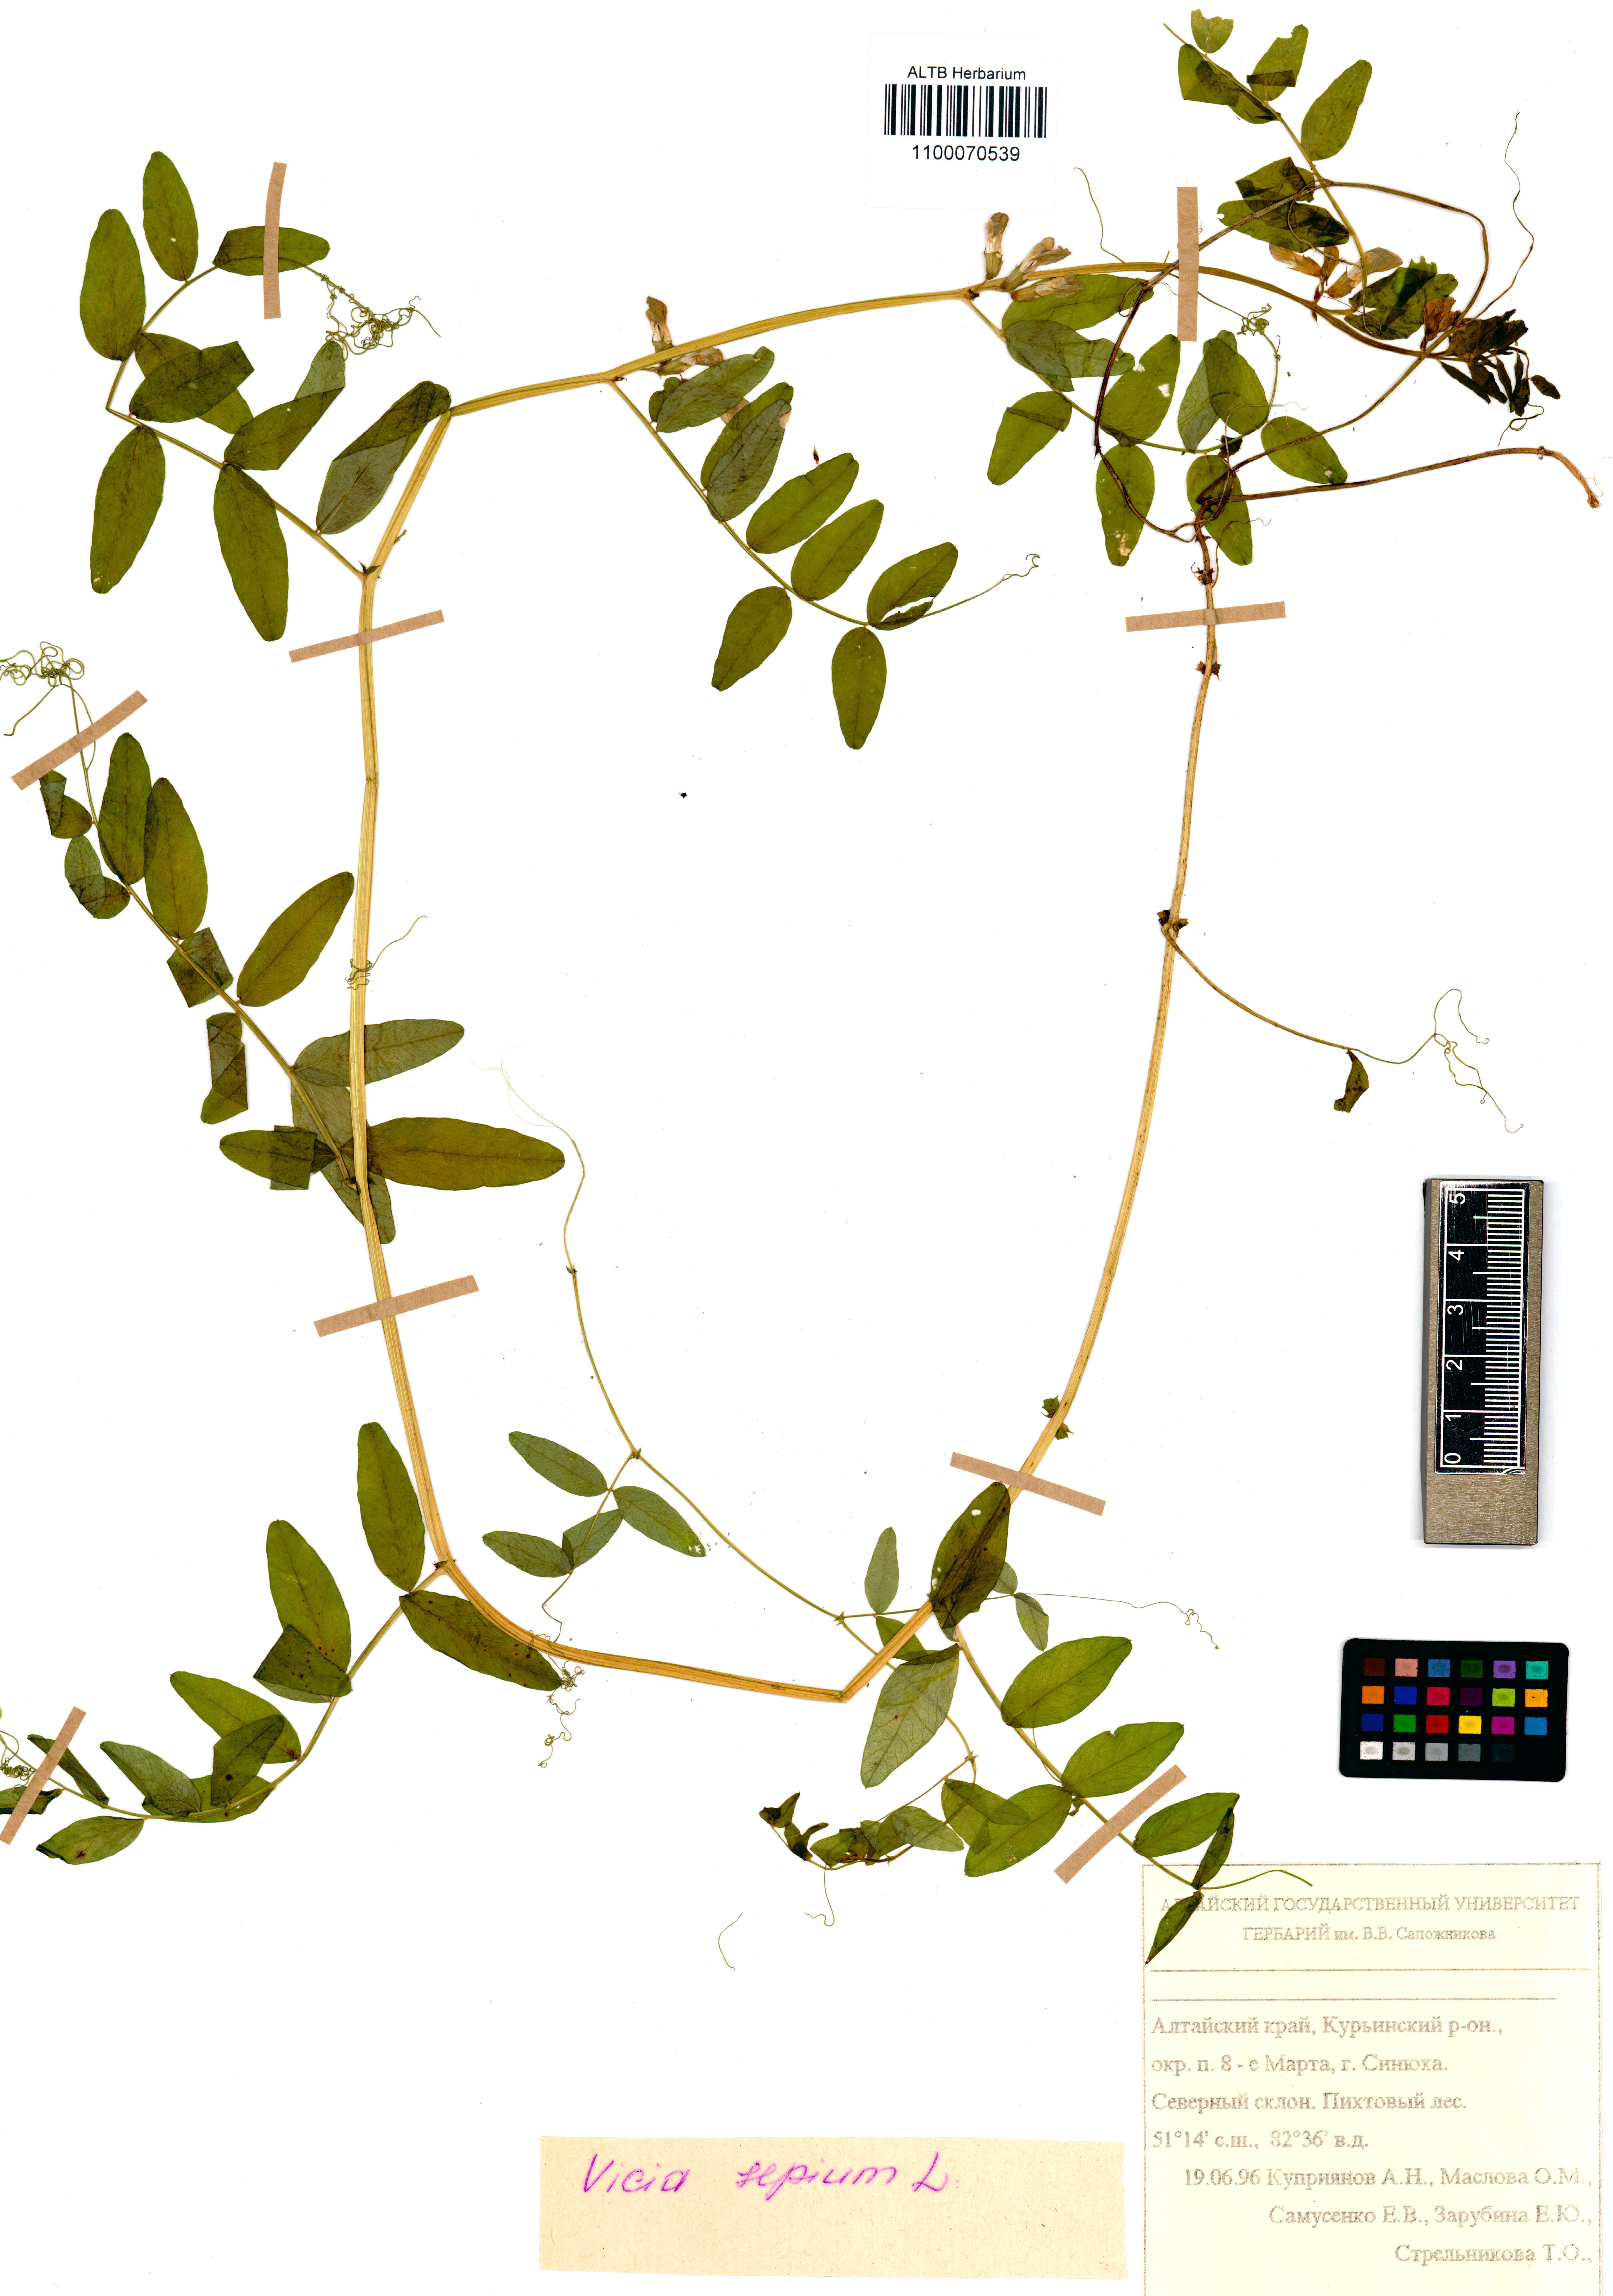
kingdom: Plantae
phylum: Tracheophyta
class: Magnoliopsida
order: Fabales
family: Fabaceae
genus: Vicia
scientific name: Vicia sepium
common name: Bush vetch
